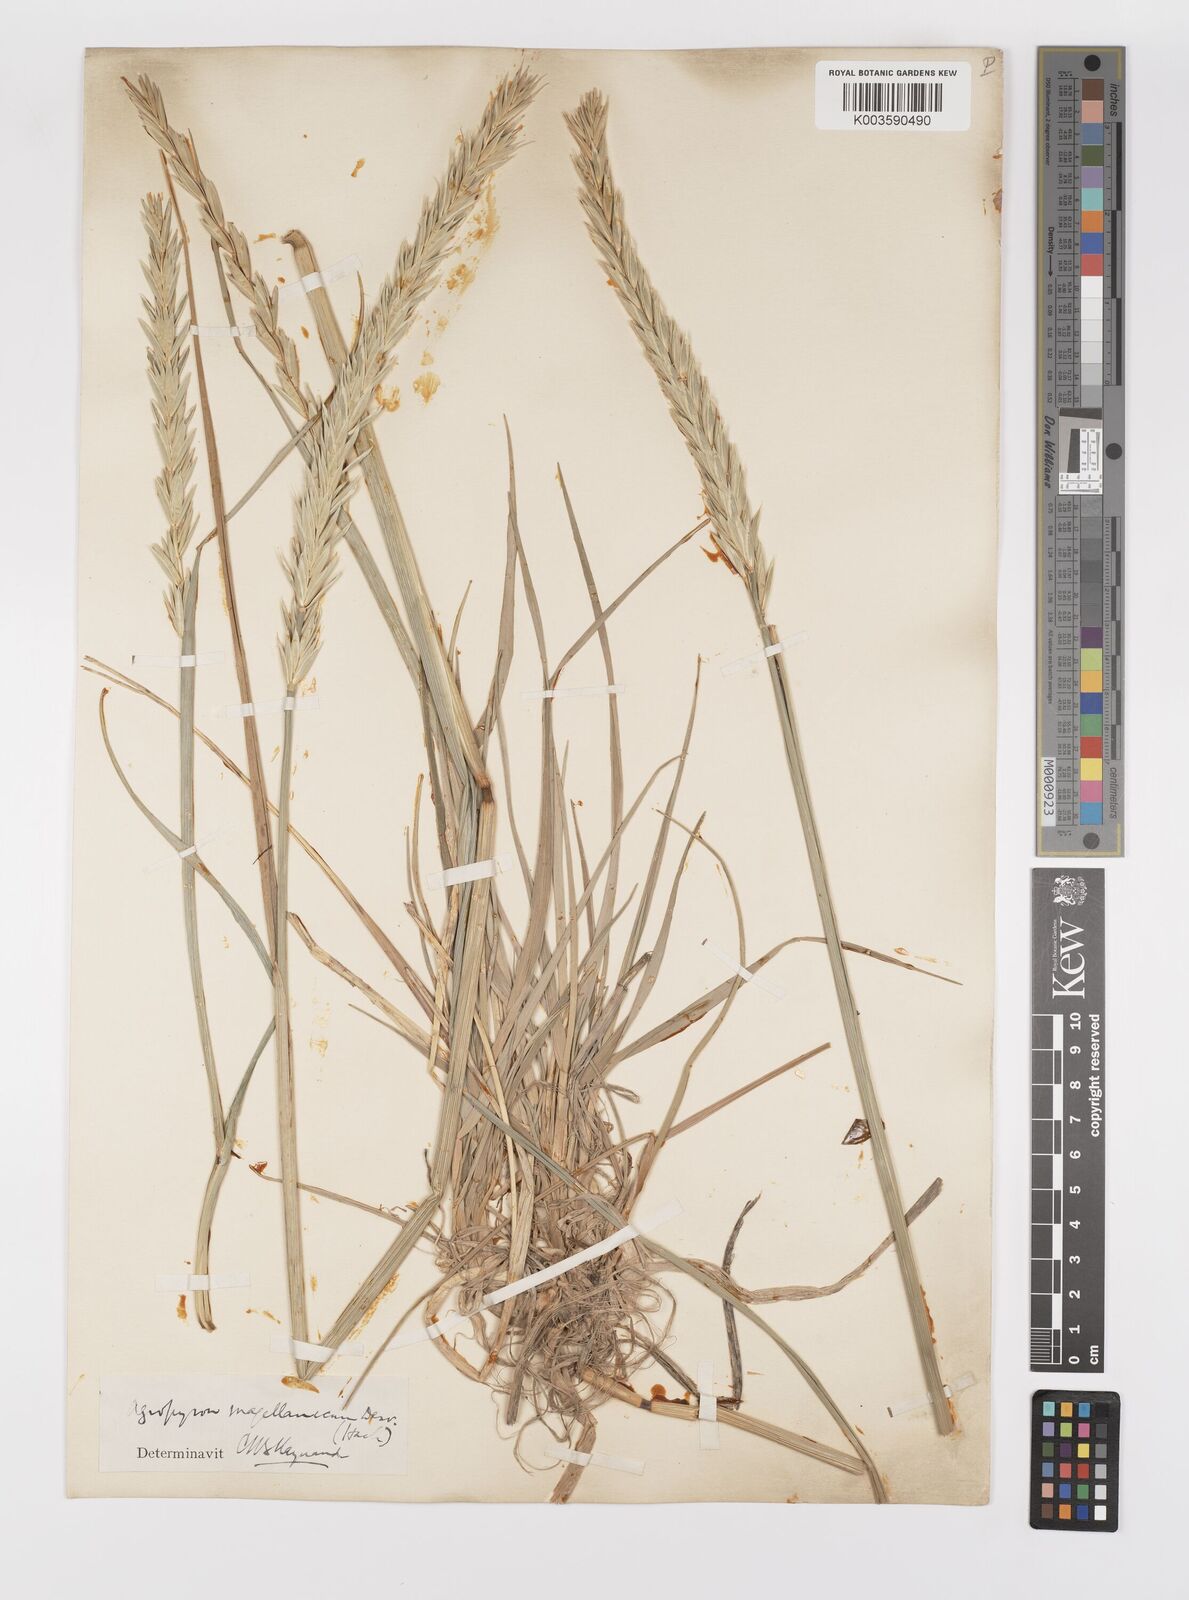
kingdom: Plantae
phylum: Tracheophyta
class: Liliopsida
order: Poales
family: Poaceae
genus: Elymus
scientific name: Elymus magellanicus
